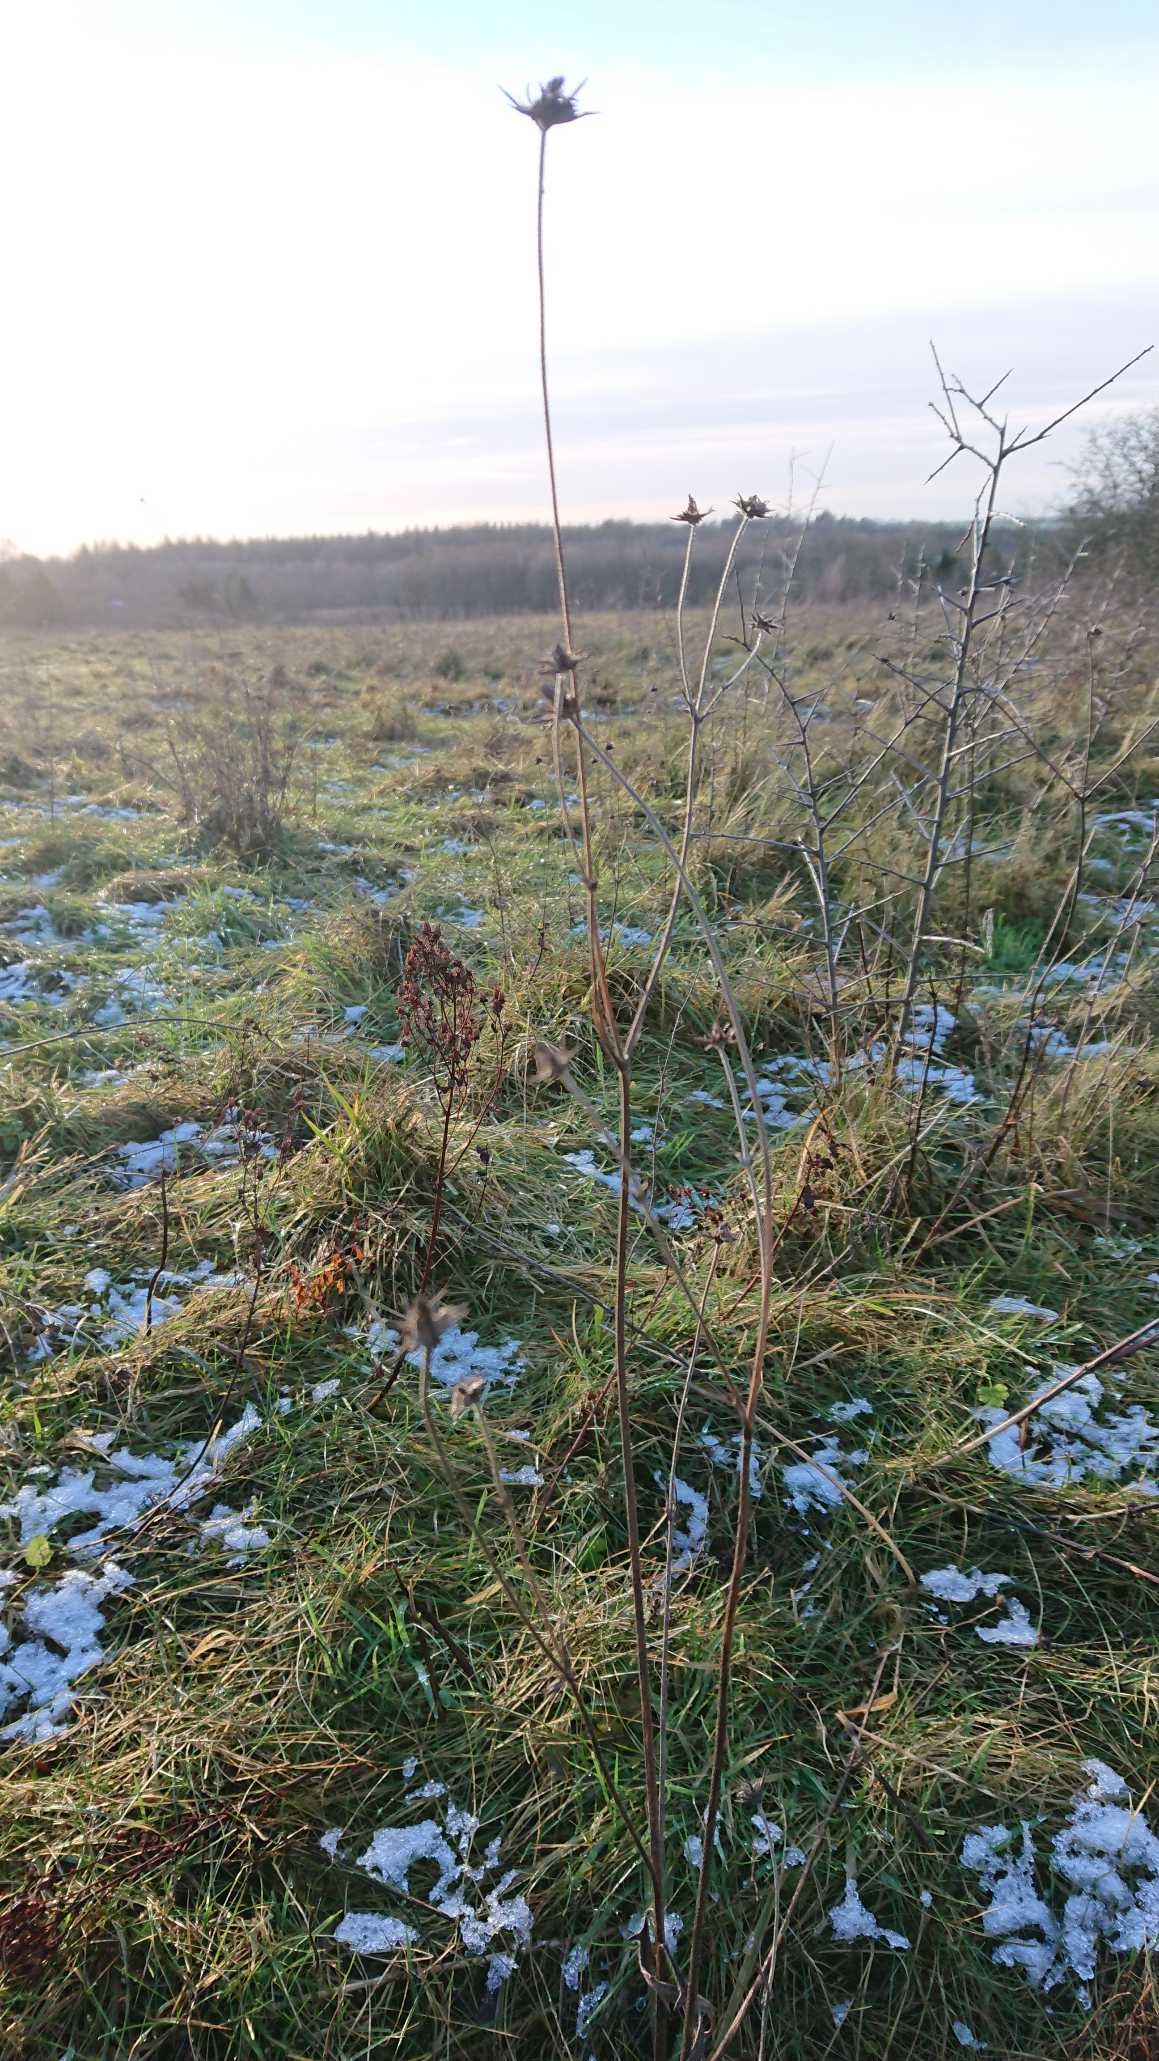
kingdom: Plantae
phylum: Tracheophyta
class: Magnoliopsida
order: Dipsacales
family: Caprifoliaceae
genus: Succisa
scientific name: Succisa pratensis
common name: Djævelsbid
